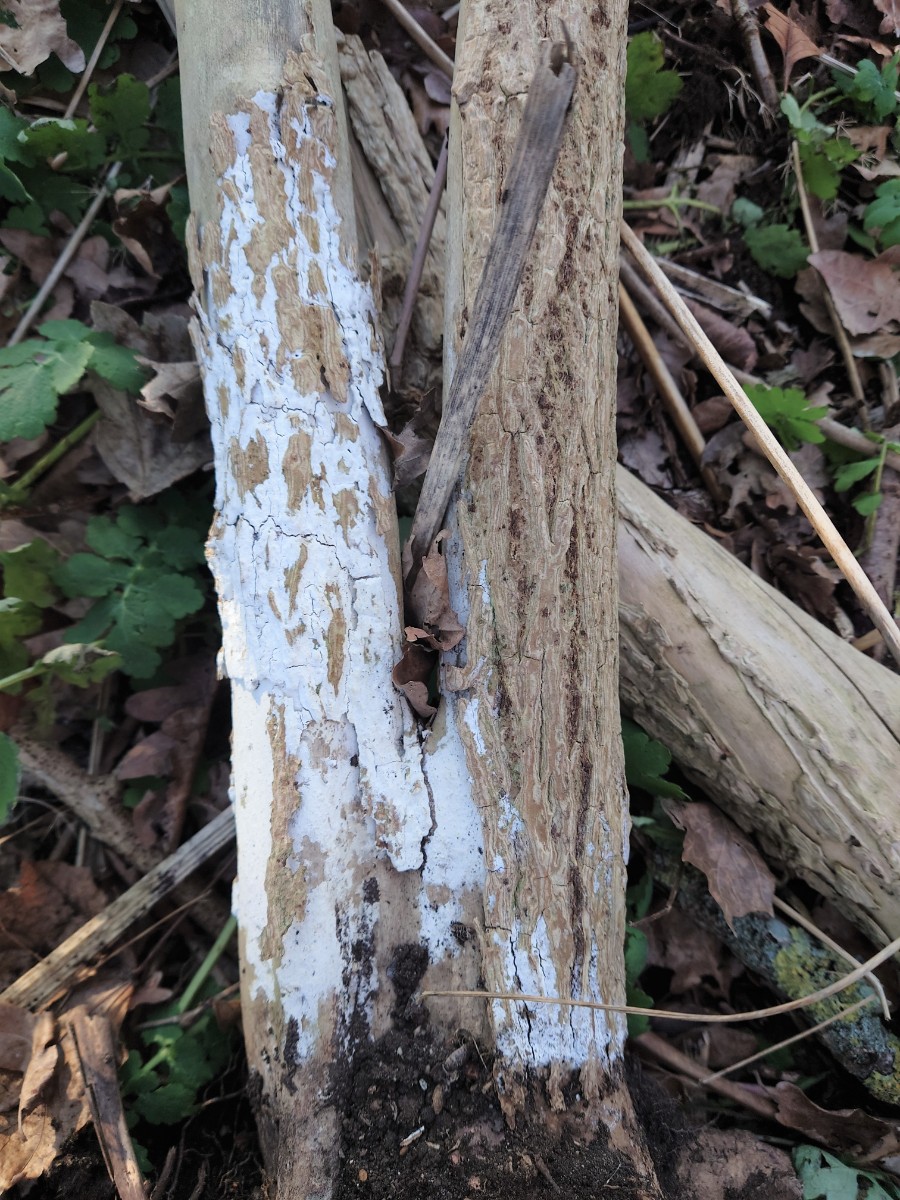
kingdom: Fungi
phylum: Basidiomycota
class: Agaricomycetes
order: Corticiales
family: Corticiaceae
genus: Lyomyces
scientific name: Lyomyces sambuci
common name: almindelig hyldehinde
